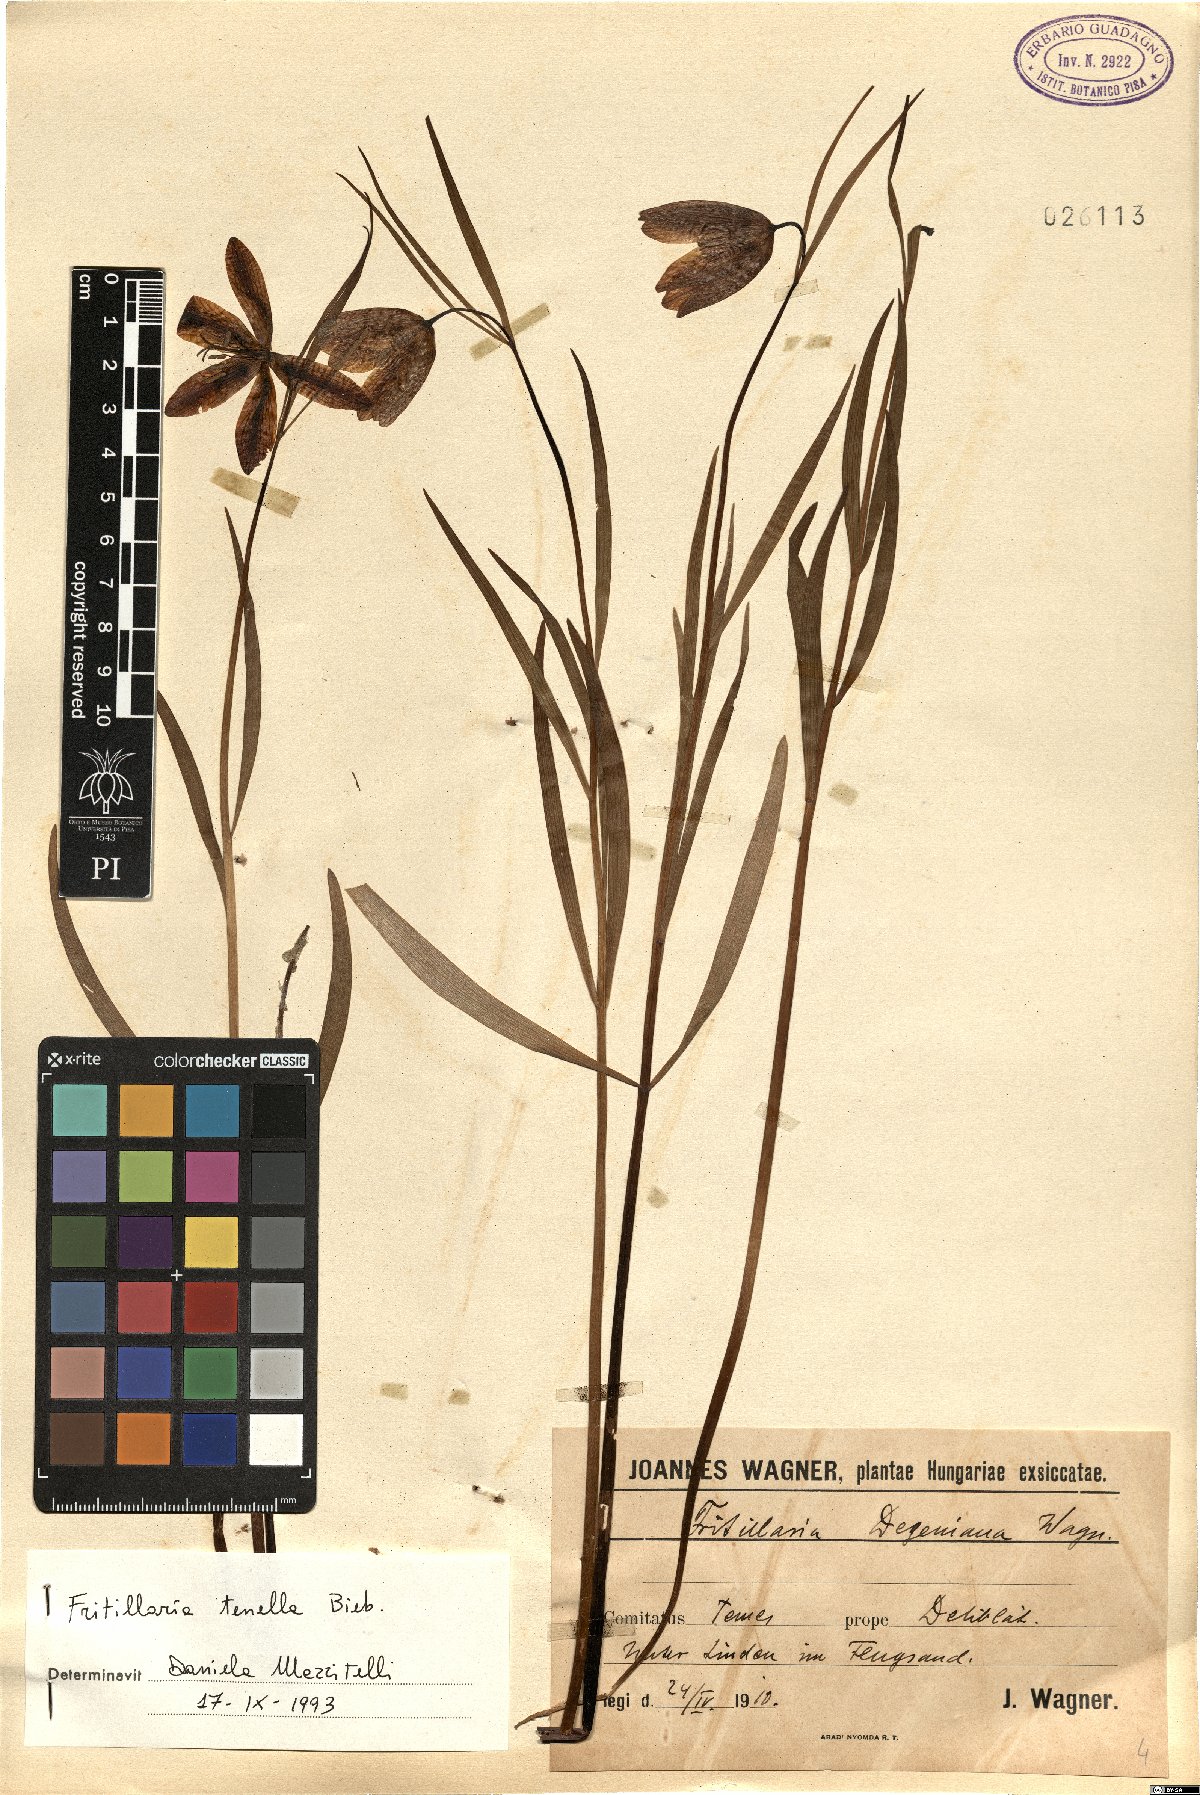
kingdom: Plantae
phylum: Tracheophyta
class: Liliopsida
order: Liliales
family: Liliaceae
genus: Fritillaria
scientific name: Fritillaria orientalis
